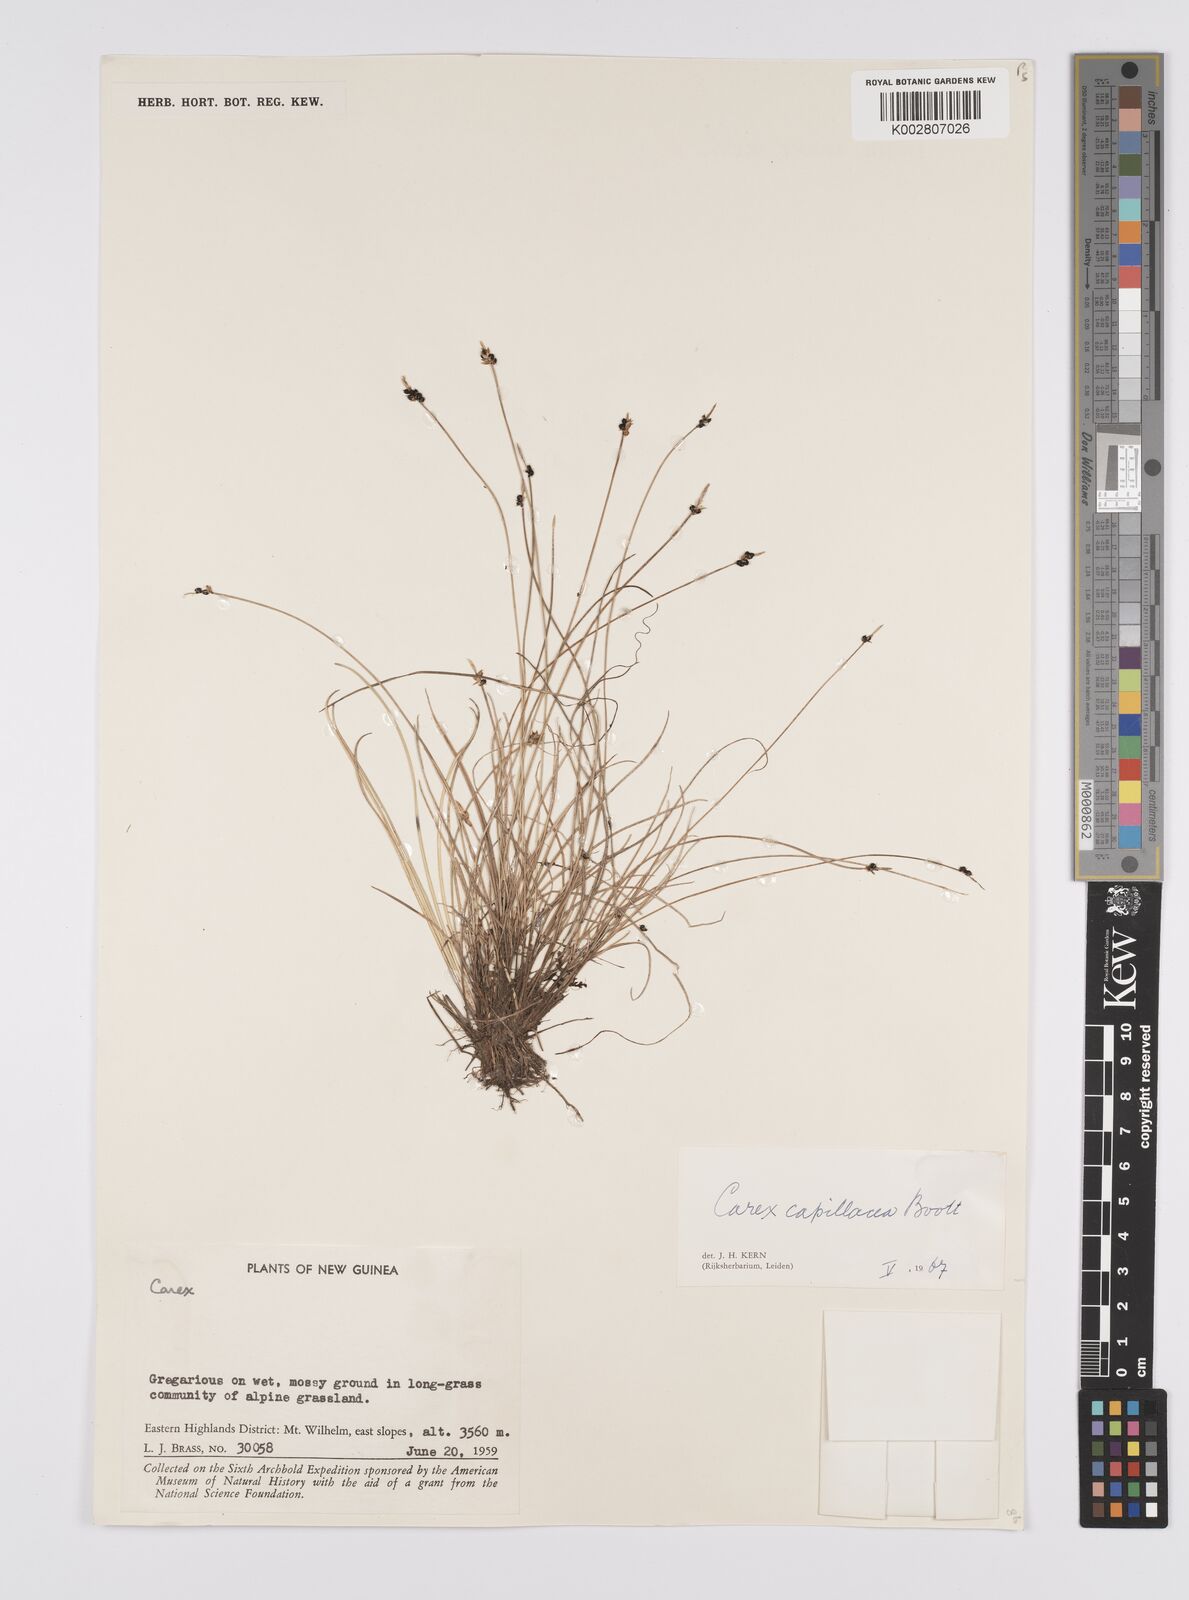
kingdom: Plantae
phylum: Tracheophyta
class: Liliopsida
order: Poales
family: Cyperaceae
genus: Carex
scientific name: Carex capillacea
